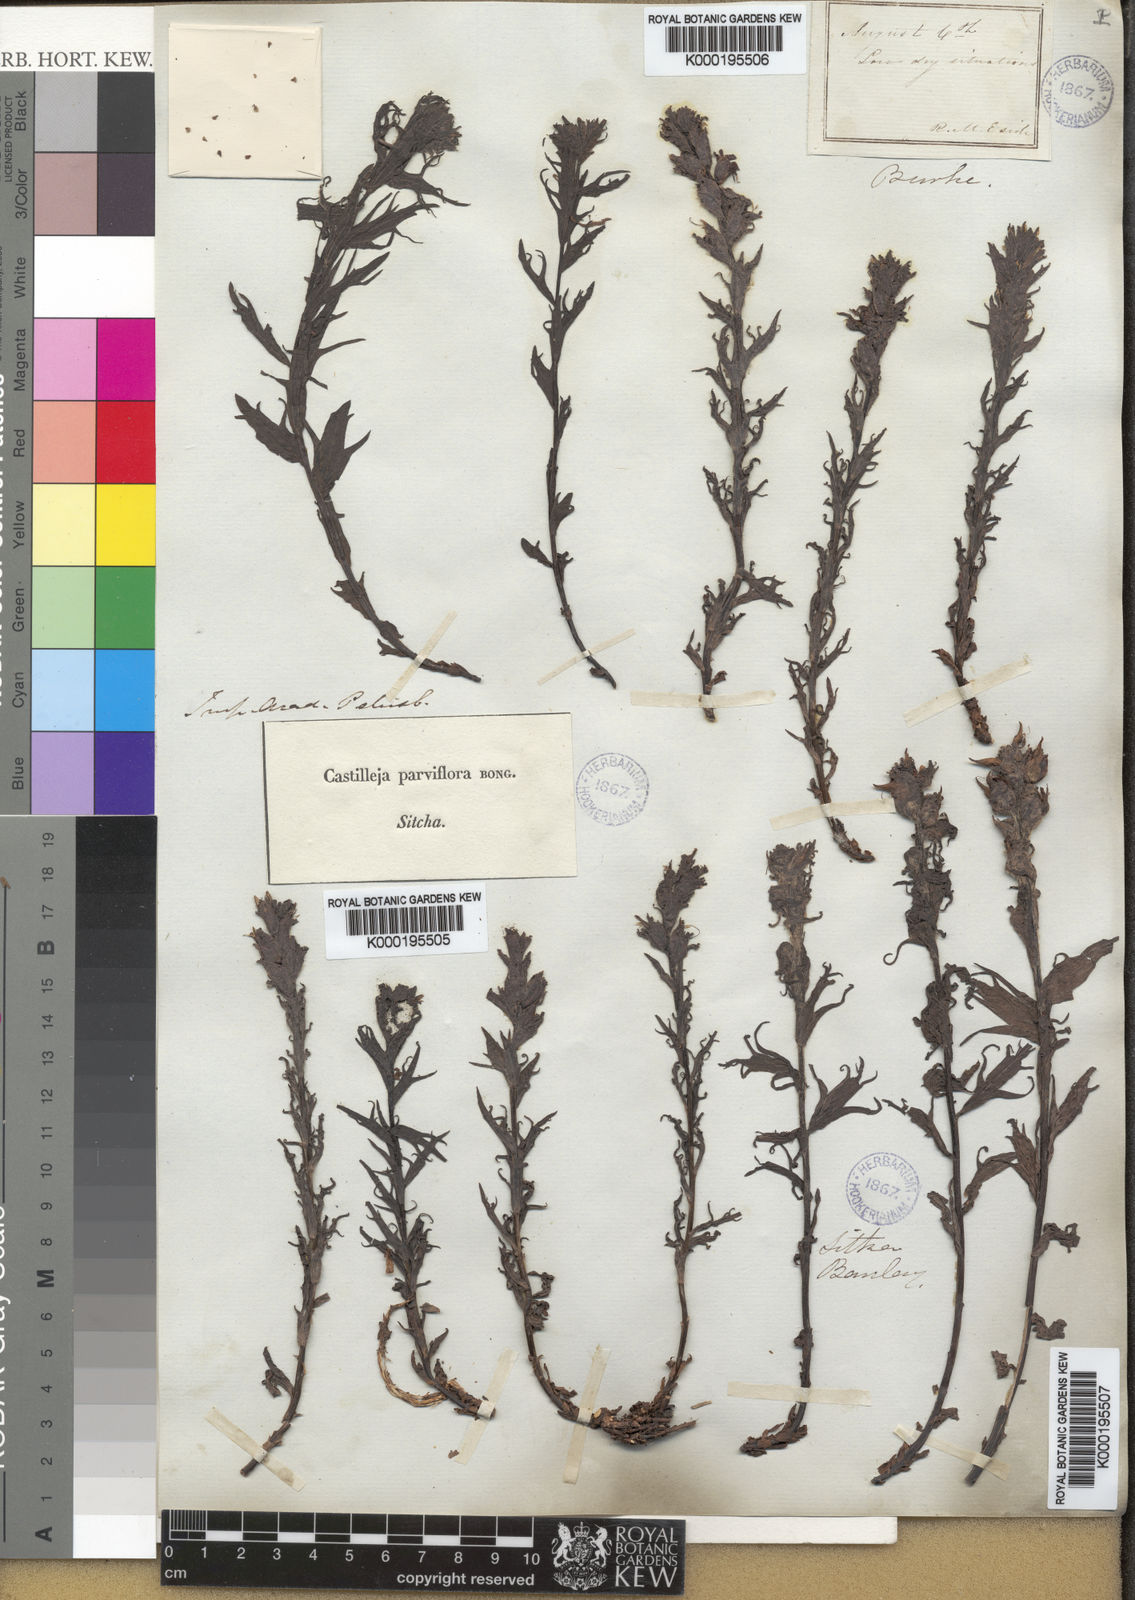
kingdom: Plantae
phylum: Tracheophyta
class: Magnoliopsida
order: Lamiales
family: Orobanchaceae
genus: Castilleja
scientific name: Castilleja parviflora
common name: Mountain paintbrush
